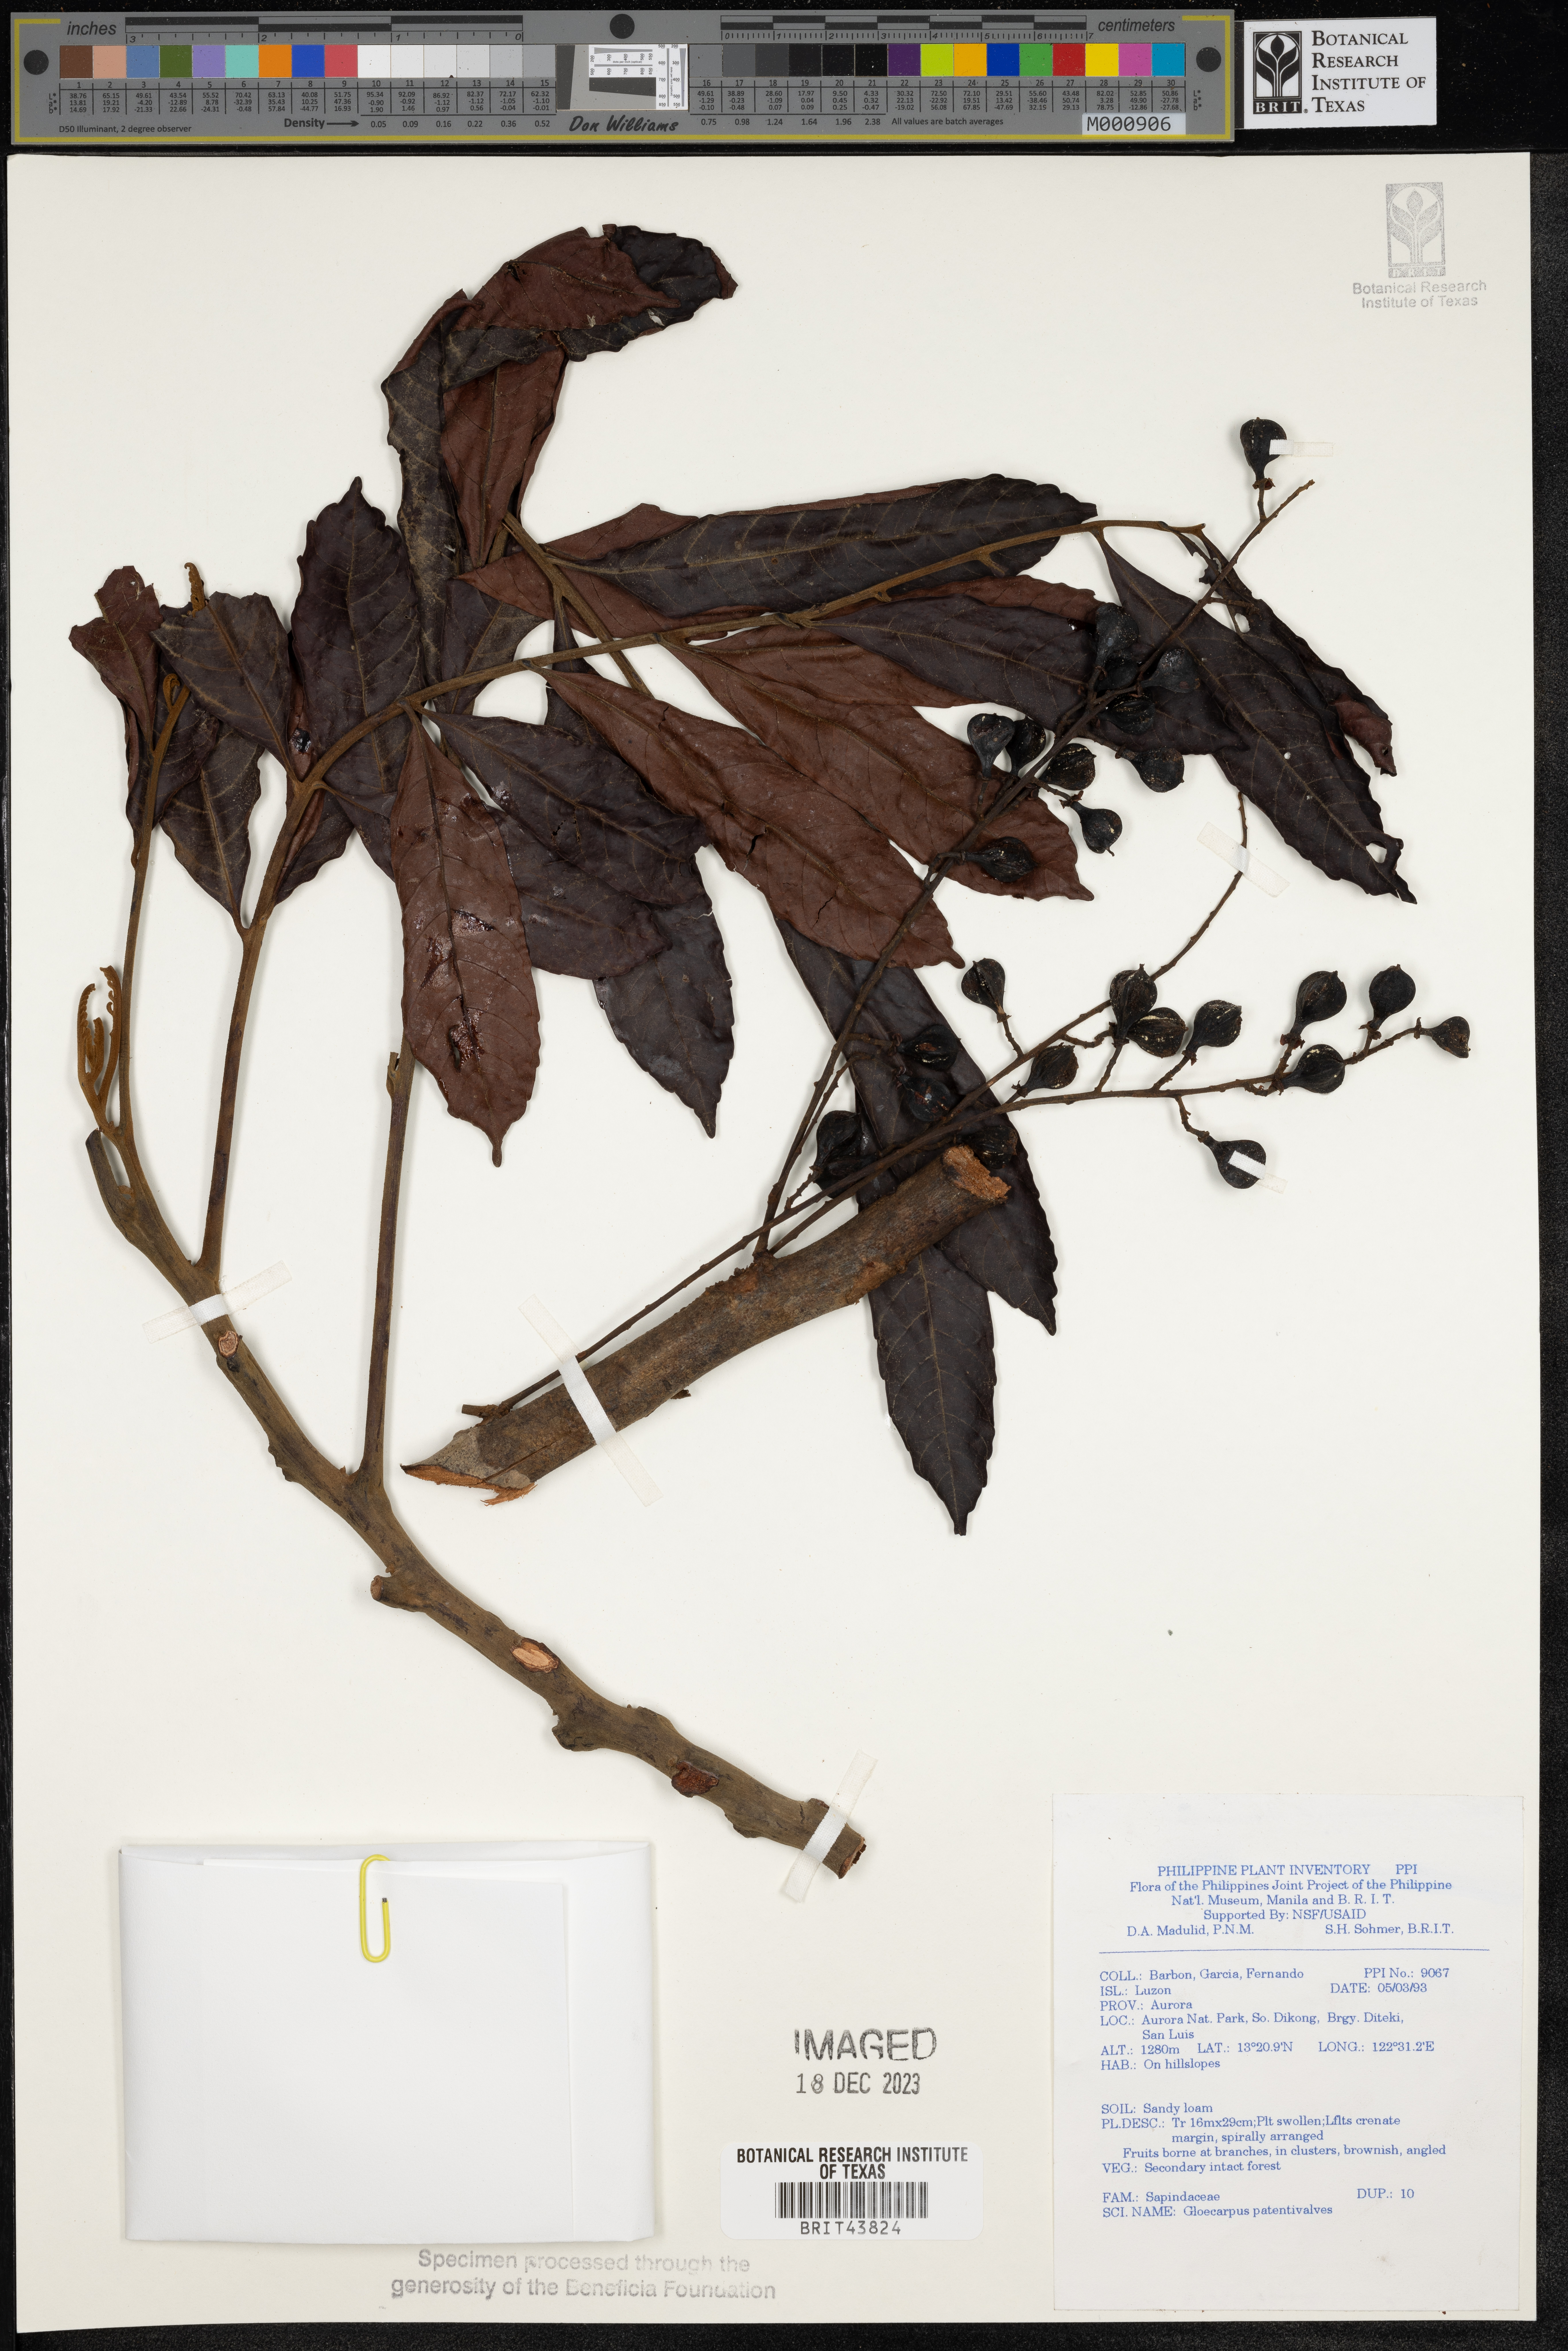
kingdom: Plantae
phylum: Tracheophyta
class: Magnoliopsida
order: Sapindales
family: Sapindaceae
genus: Gloeocarpus
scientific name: Gloeocarpus patentivalvis
